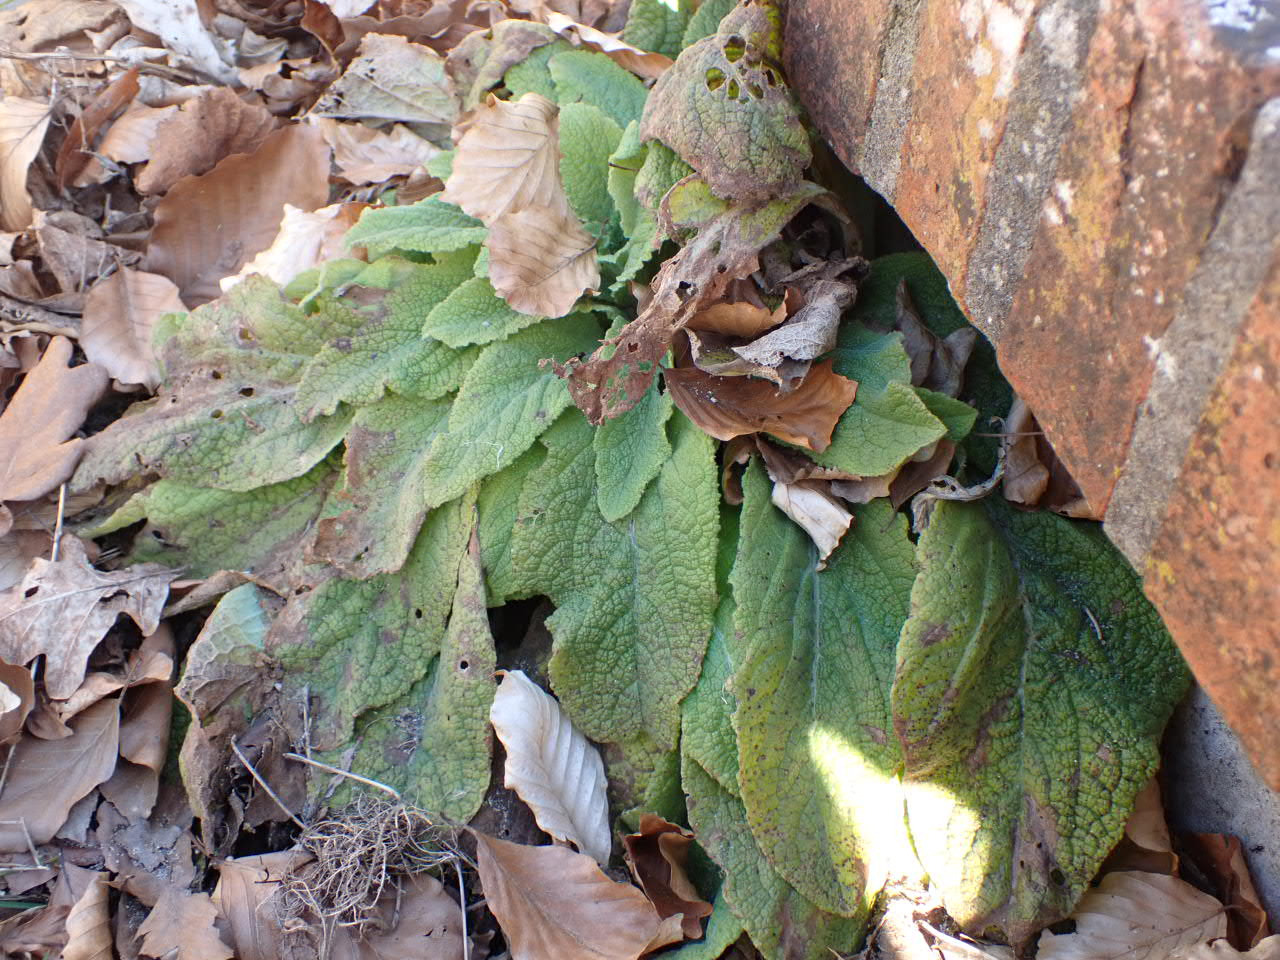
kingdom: Plantae
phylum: Tracheophyta
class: Magnoliopsida
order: Lamiales
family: Plantaginaceae
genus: Digitalis
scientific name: Digitalis purpurea
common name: Almindelig fingerbøl
